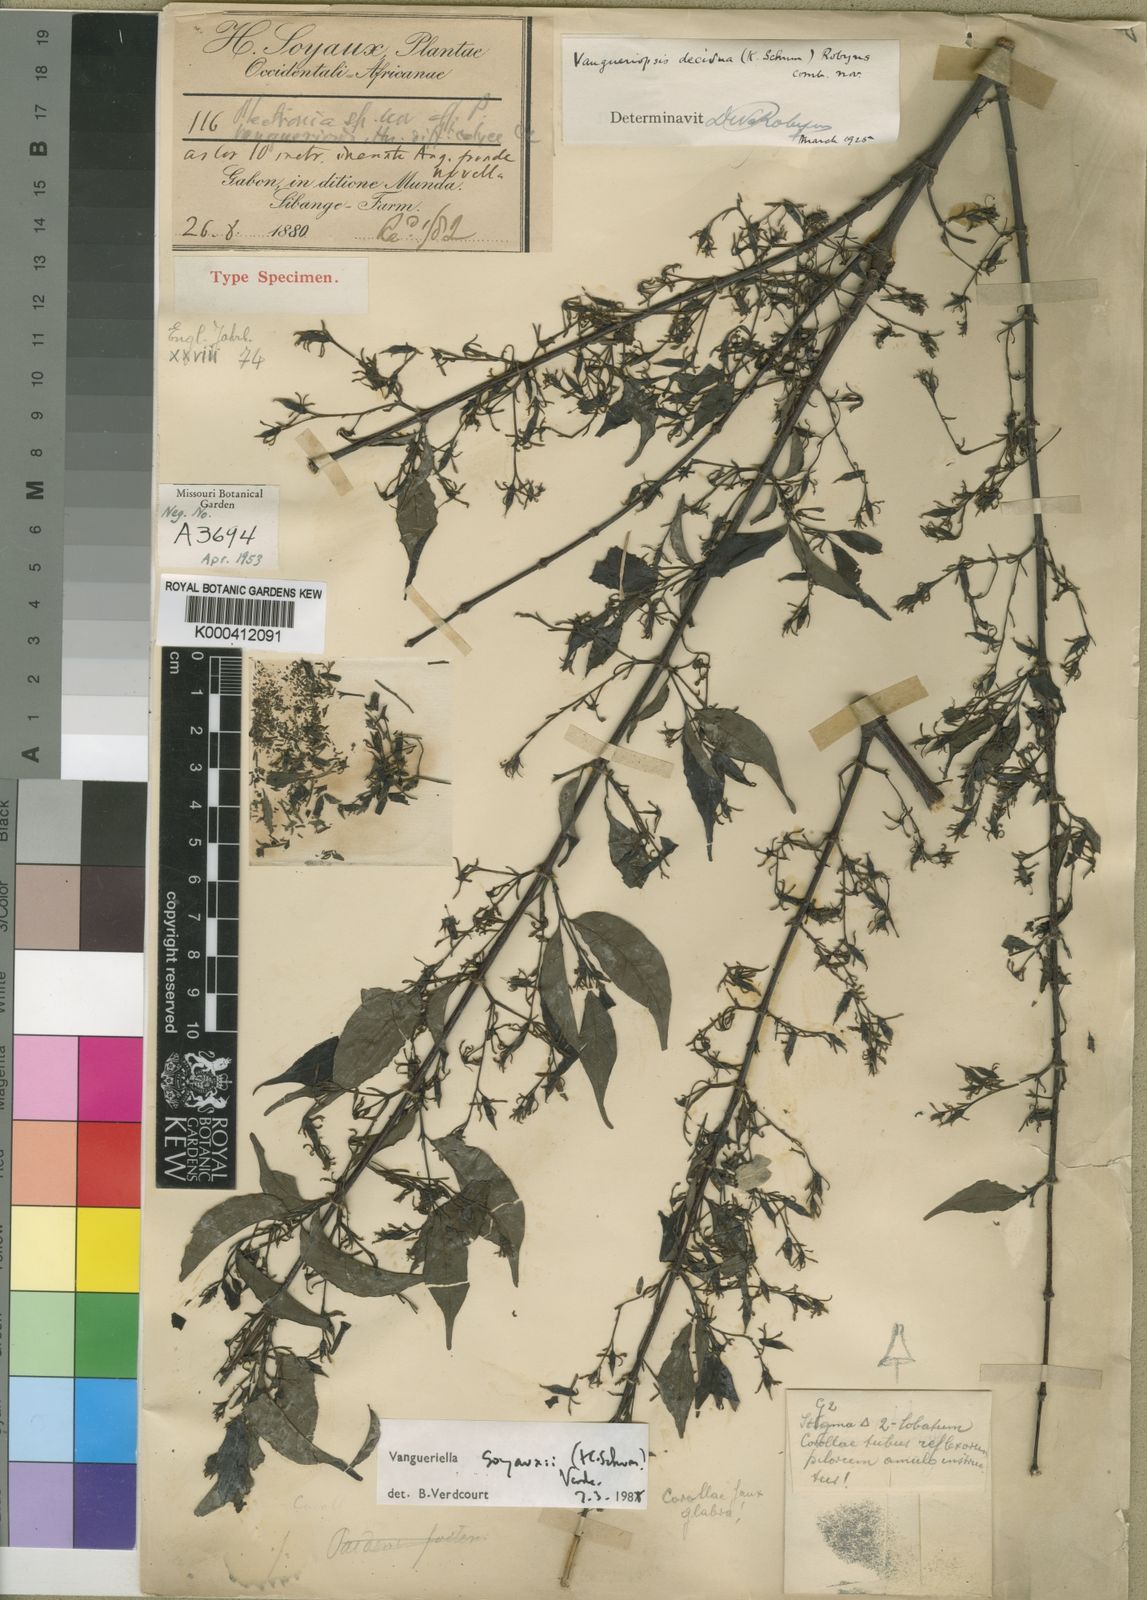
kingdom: Plantae
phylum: Tracheophyta
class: Magnoliopsida
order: Gentianales
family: Rubiaceae
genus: Vangueriella
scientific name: Vangueriella soyauxii
